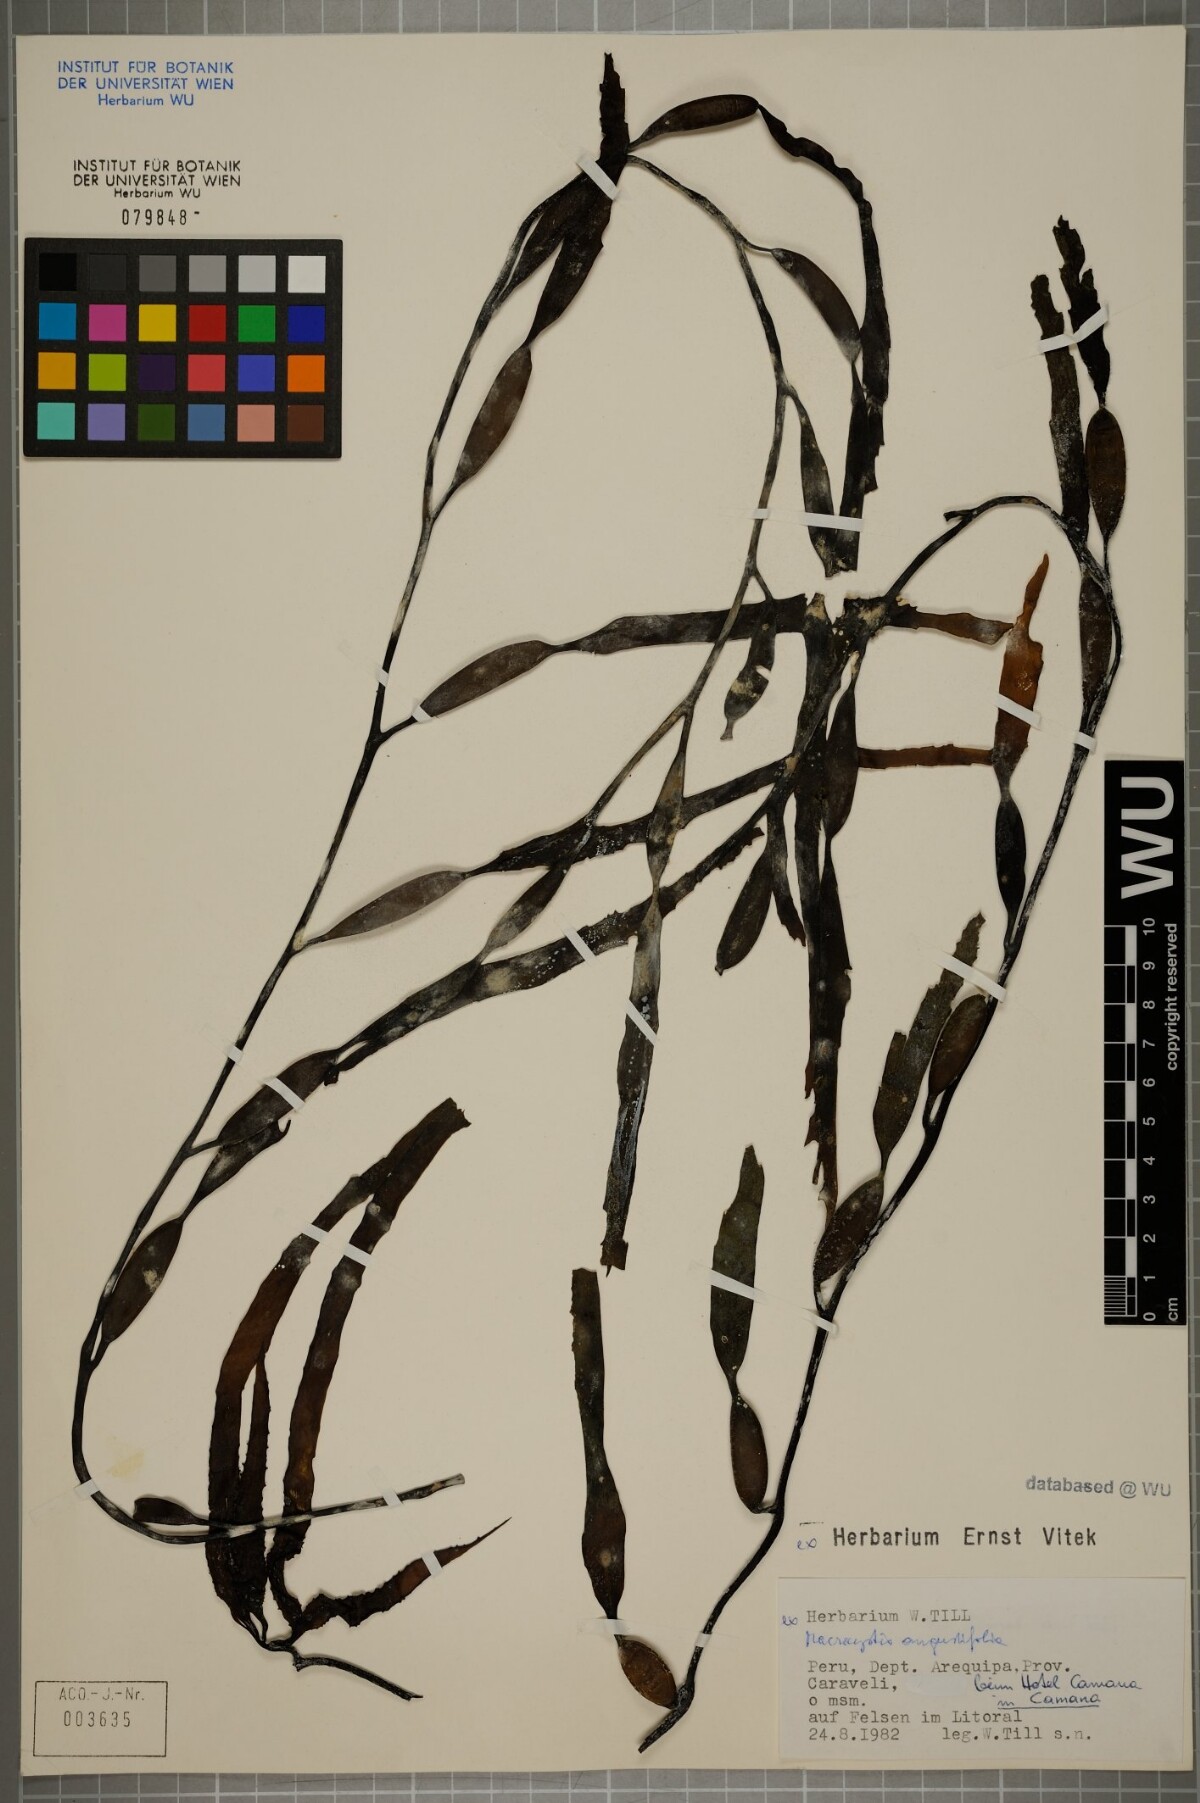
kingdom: Chromista
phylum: Ochrophyta
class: Phaeophyceae
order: Laminariales
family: Laminariaceae
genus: Macrocystis
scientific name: Macrocystis angustifolia
